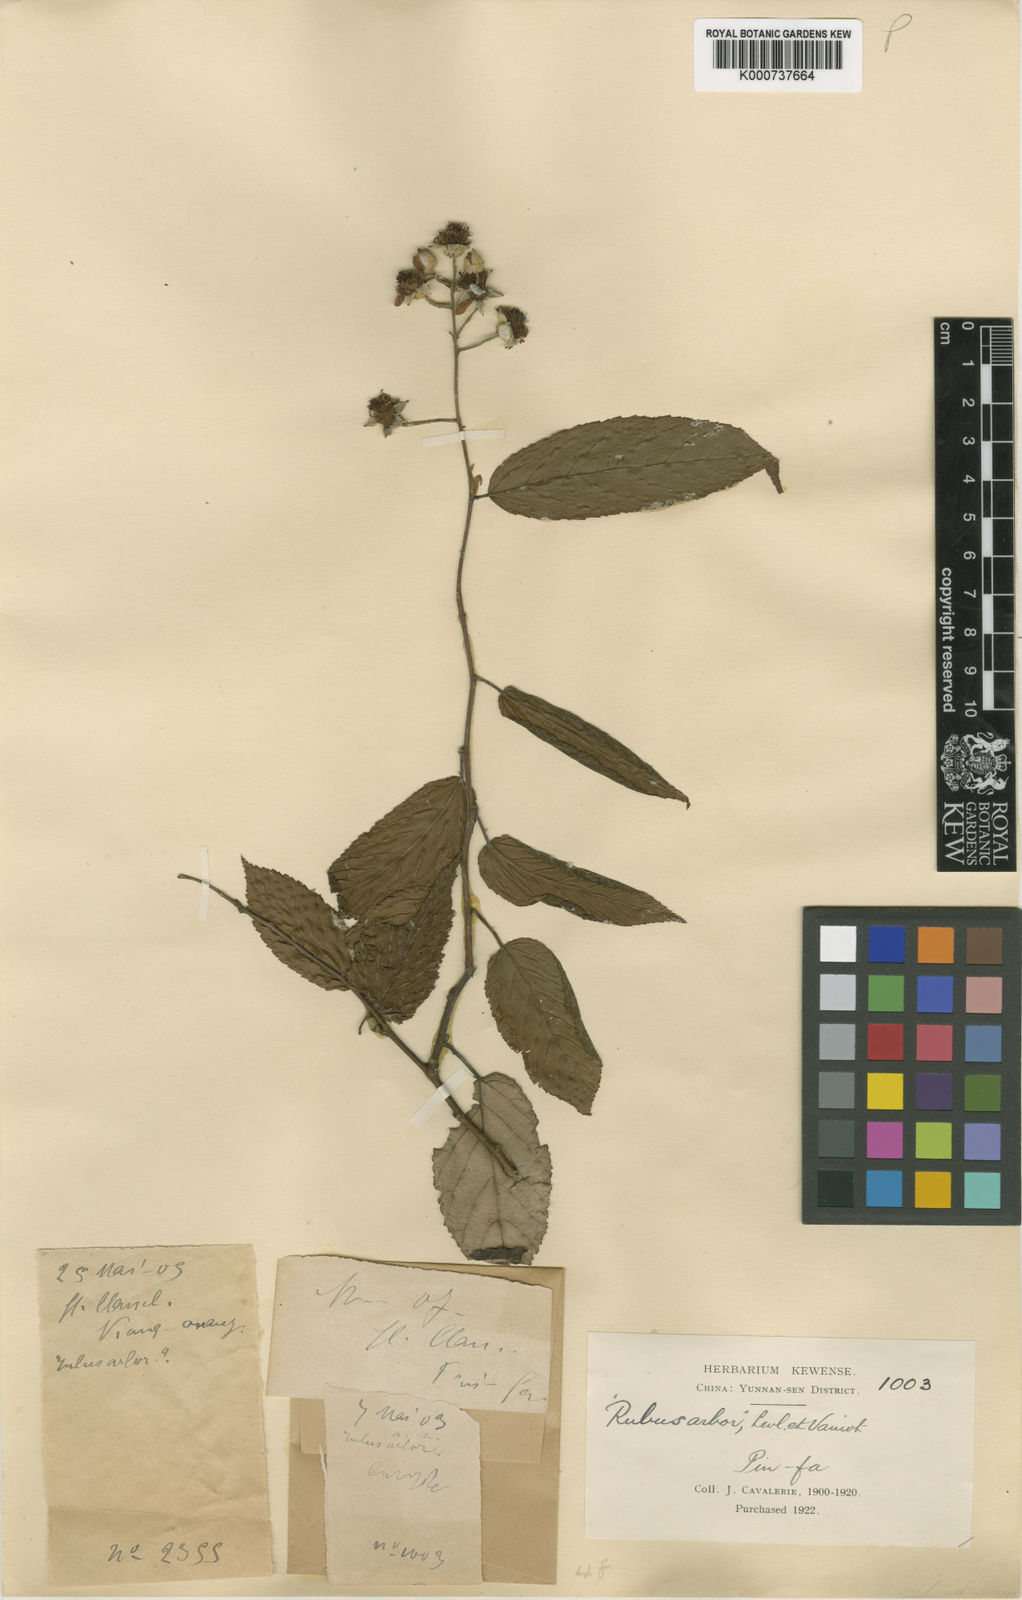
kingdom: Plantae
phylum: Tracheophyta
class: Magnoliopsida
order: Rosales
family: Rosaceae
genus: Rubus
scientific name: Rubus
